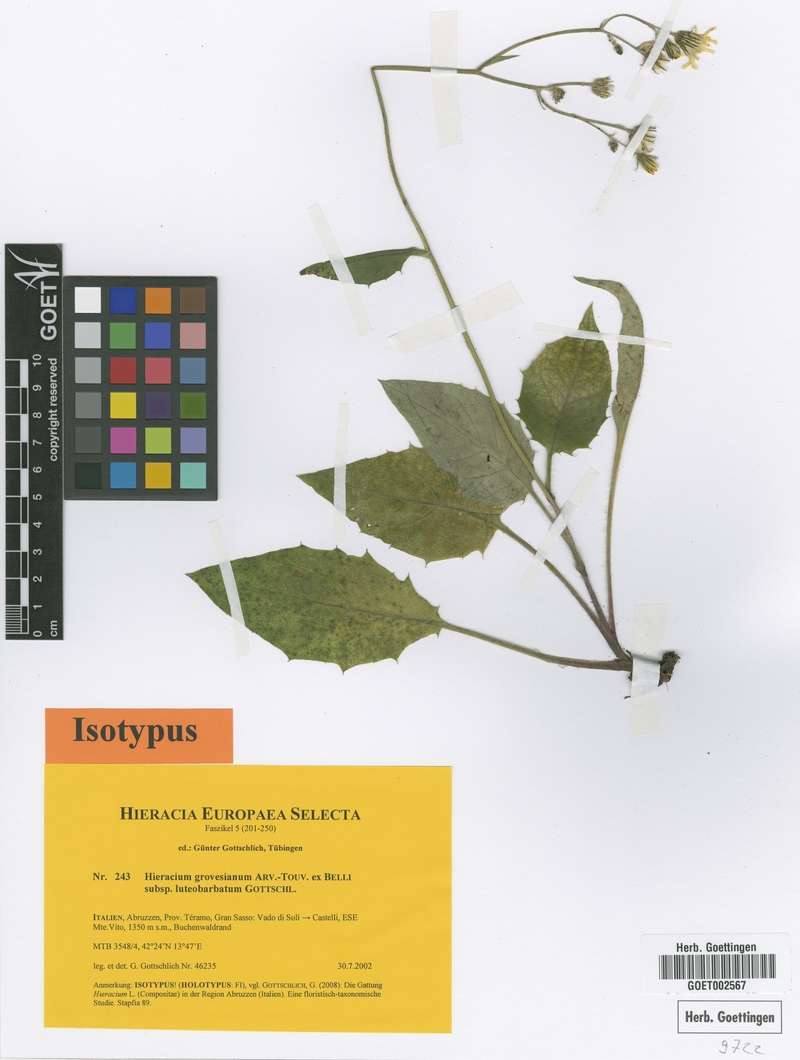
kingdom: Plantae
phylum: Tracheophyta
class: Magnoliopsida
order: Asterales
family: Asteraceae
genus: Hieracium
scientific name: Hieracium grovesianum
